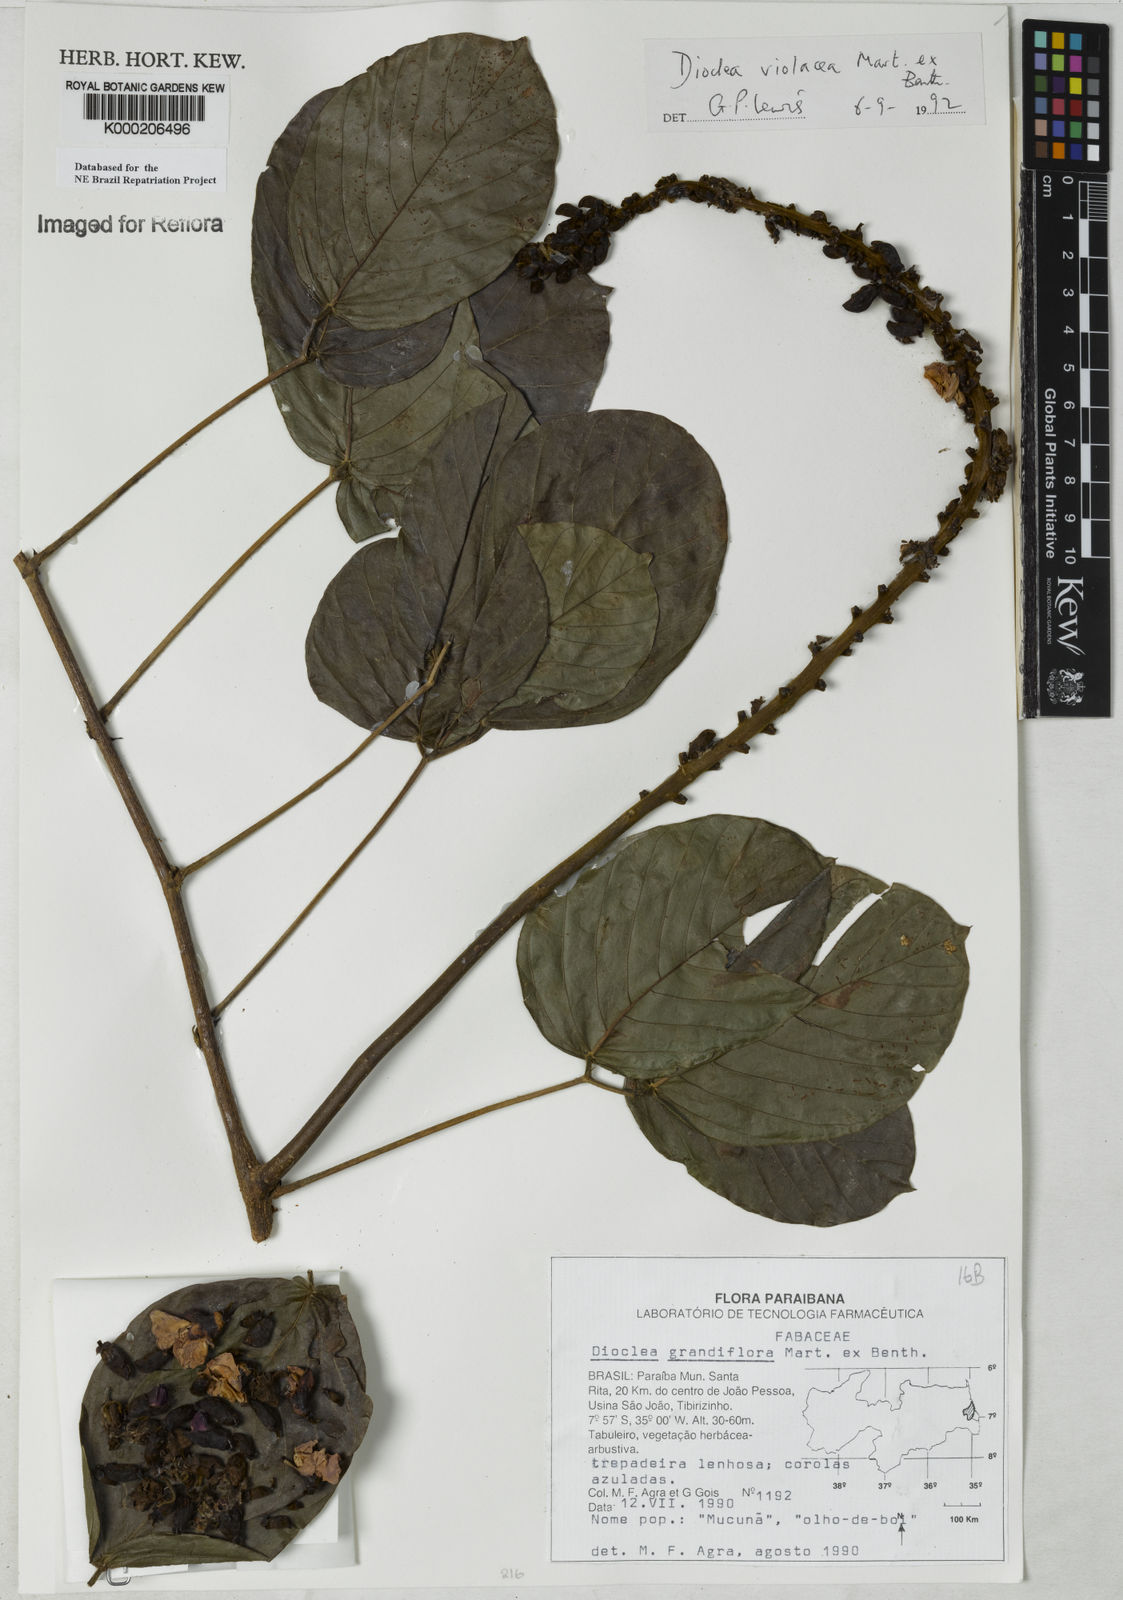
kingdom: Plantae
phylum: Tracheophyta
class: Magnoliopsida
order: Fabales
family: Fabaceae
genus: Macropsychanthus
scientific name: Macropsychanthus violaceus
